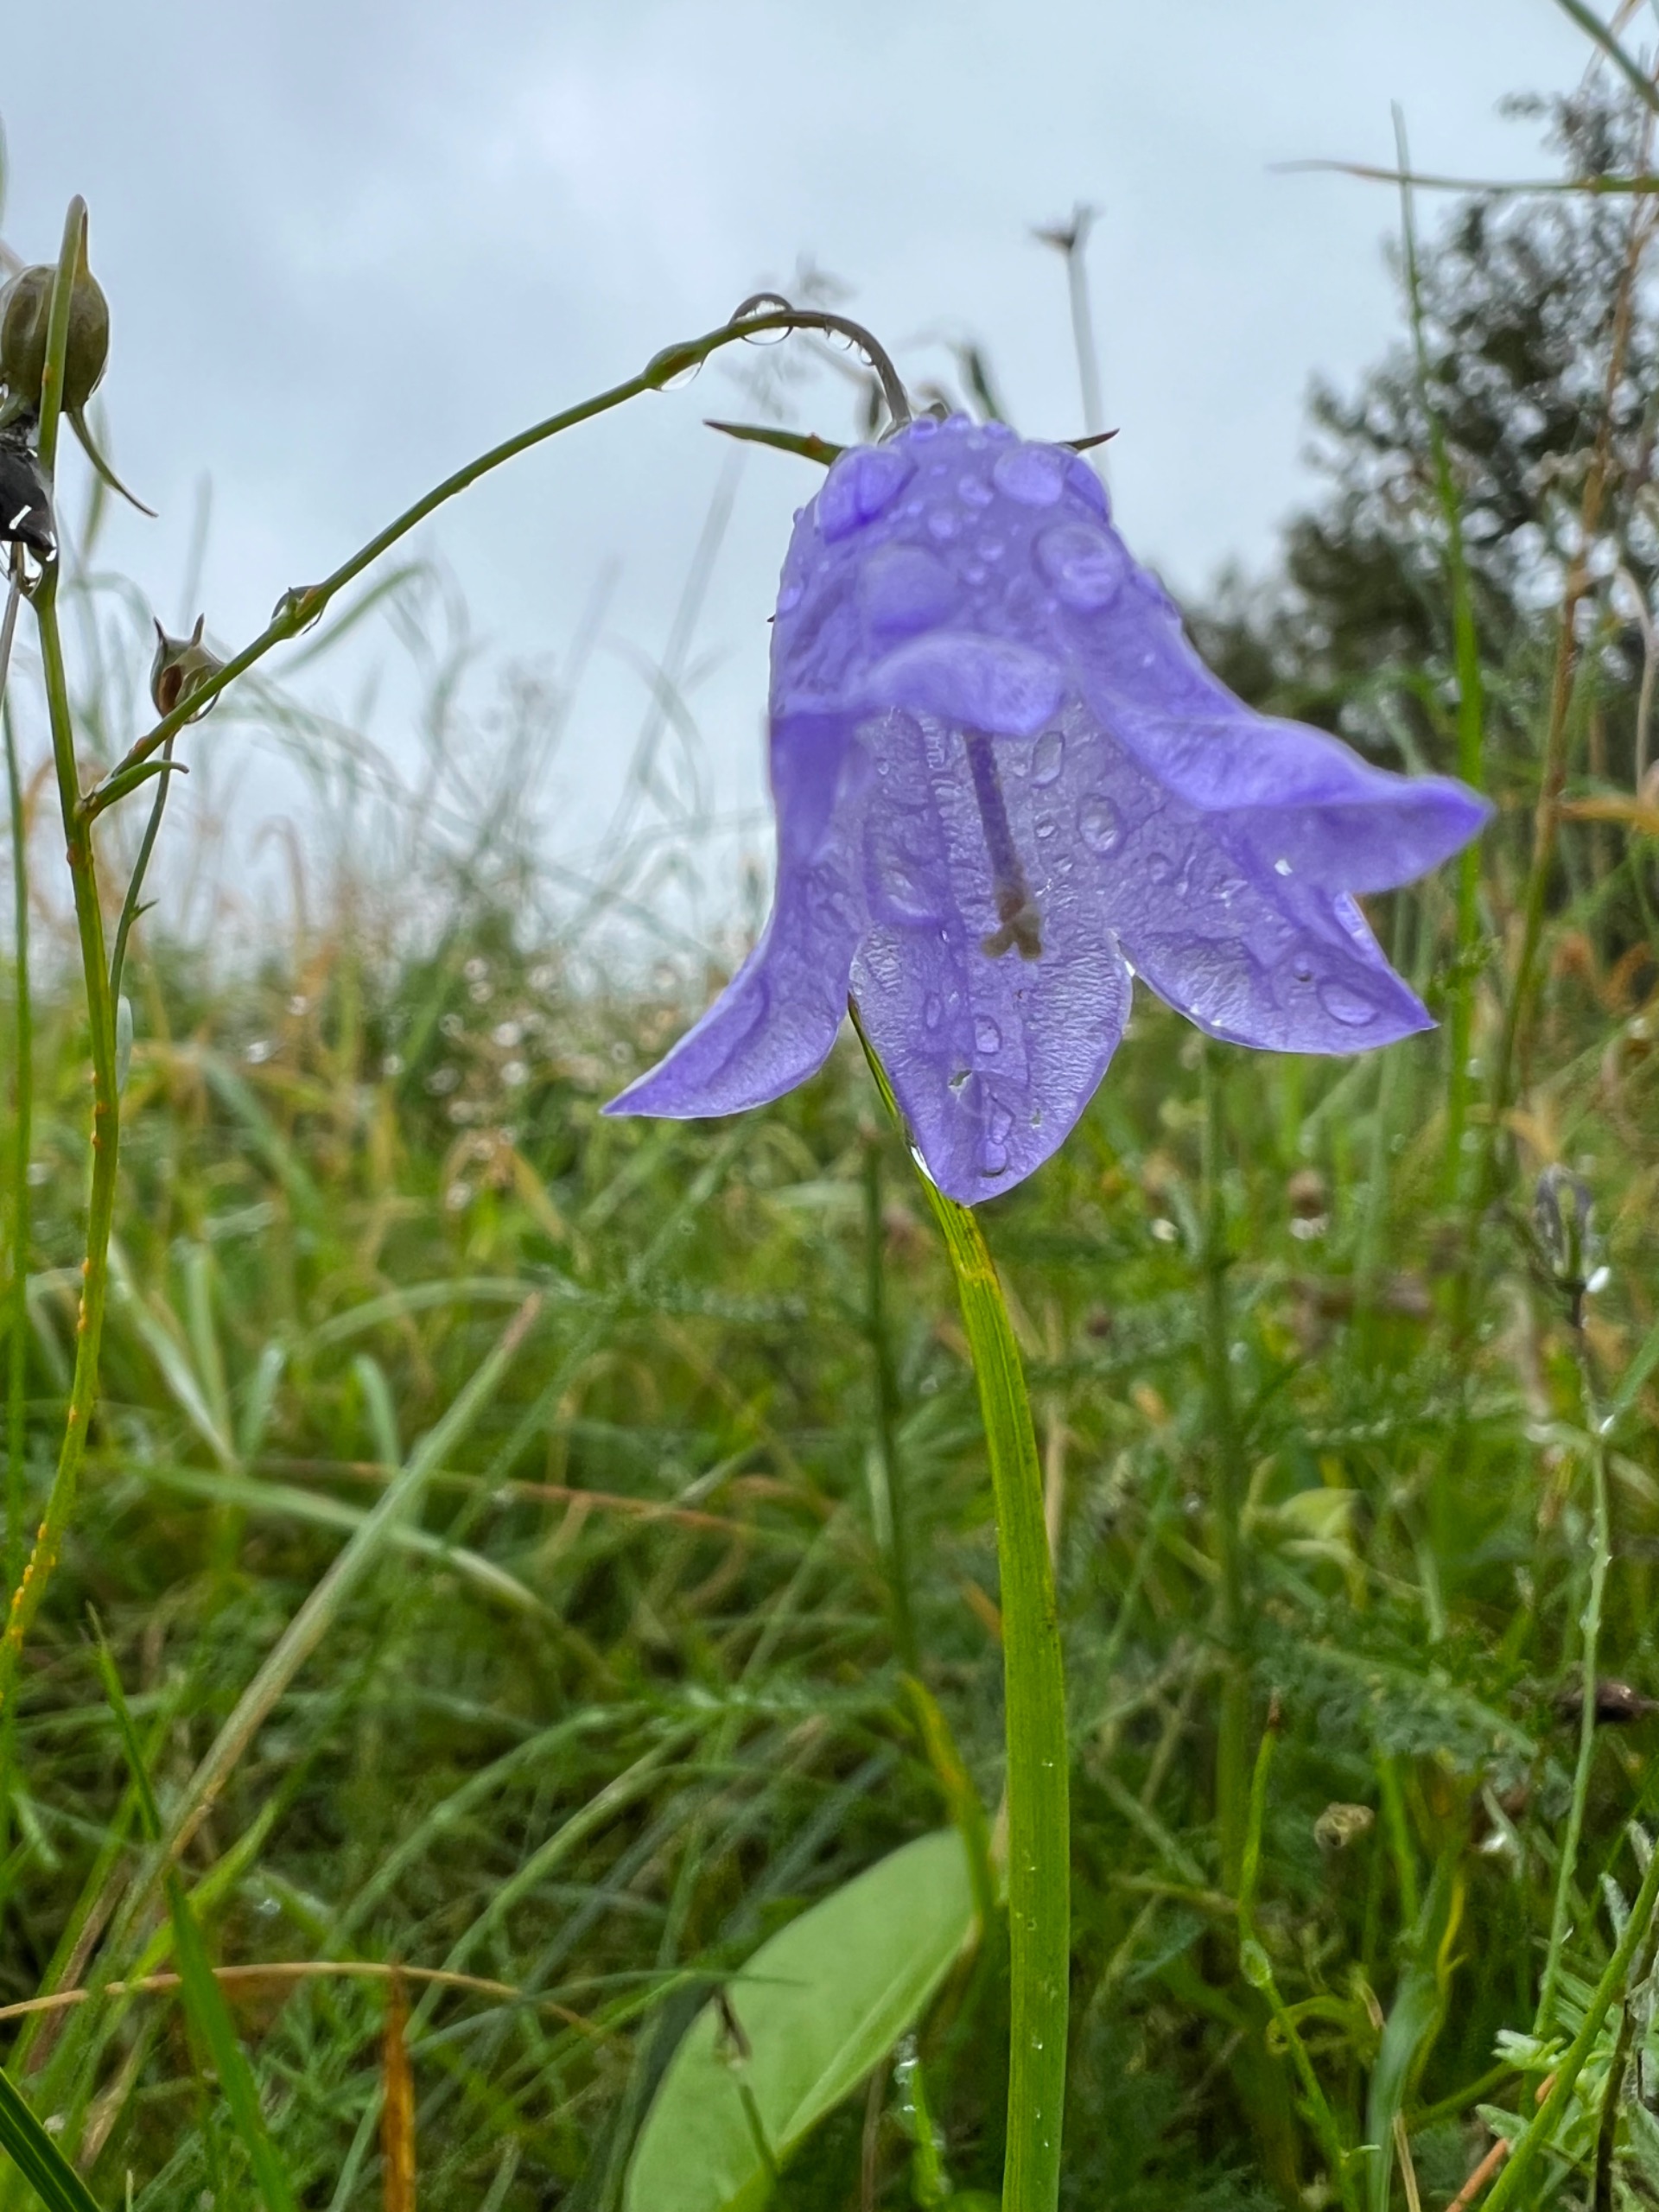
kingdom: Plantae
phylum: Tracheophyta
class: Magnoliopsida
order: Asterales
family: Campanulaceae
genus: Campanula
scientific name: Campanula rotundifolia
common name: Liden klokke
